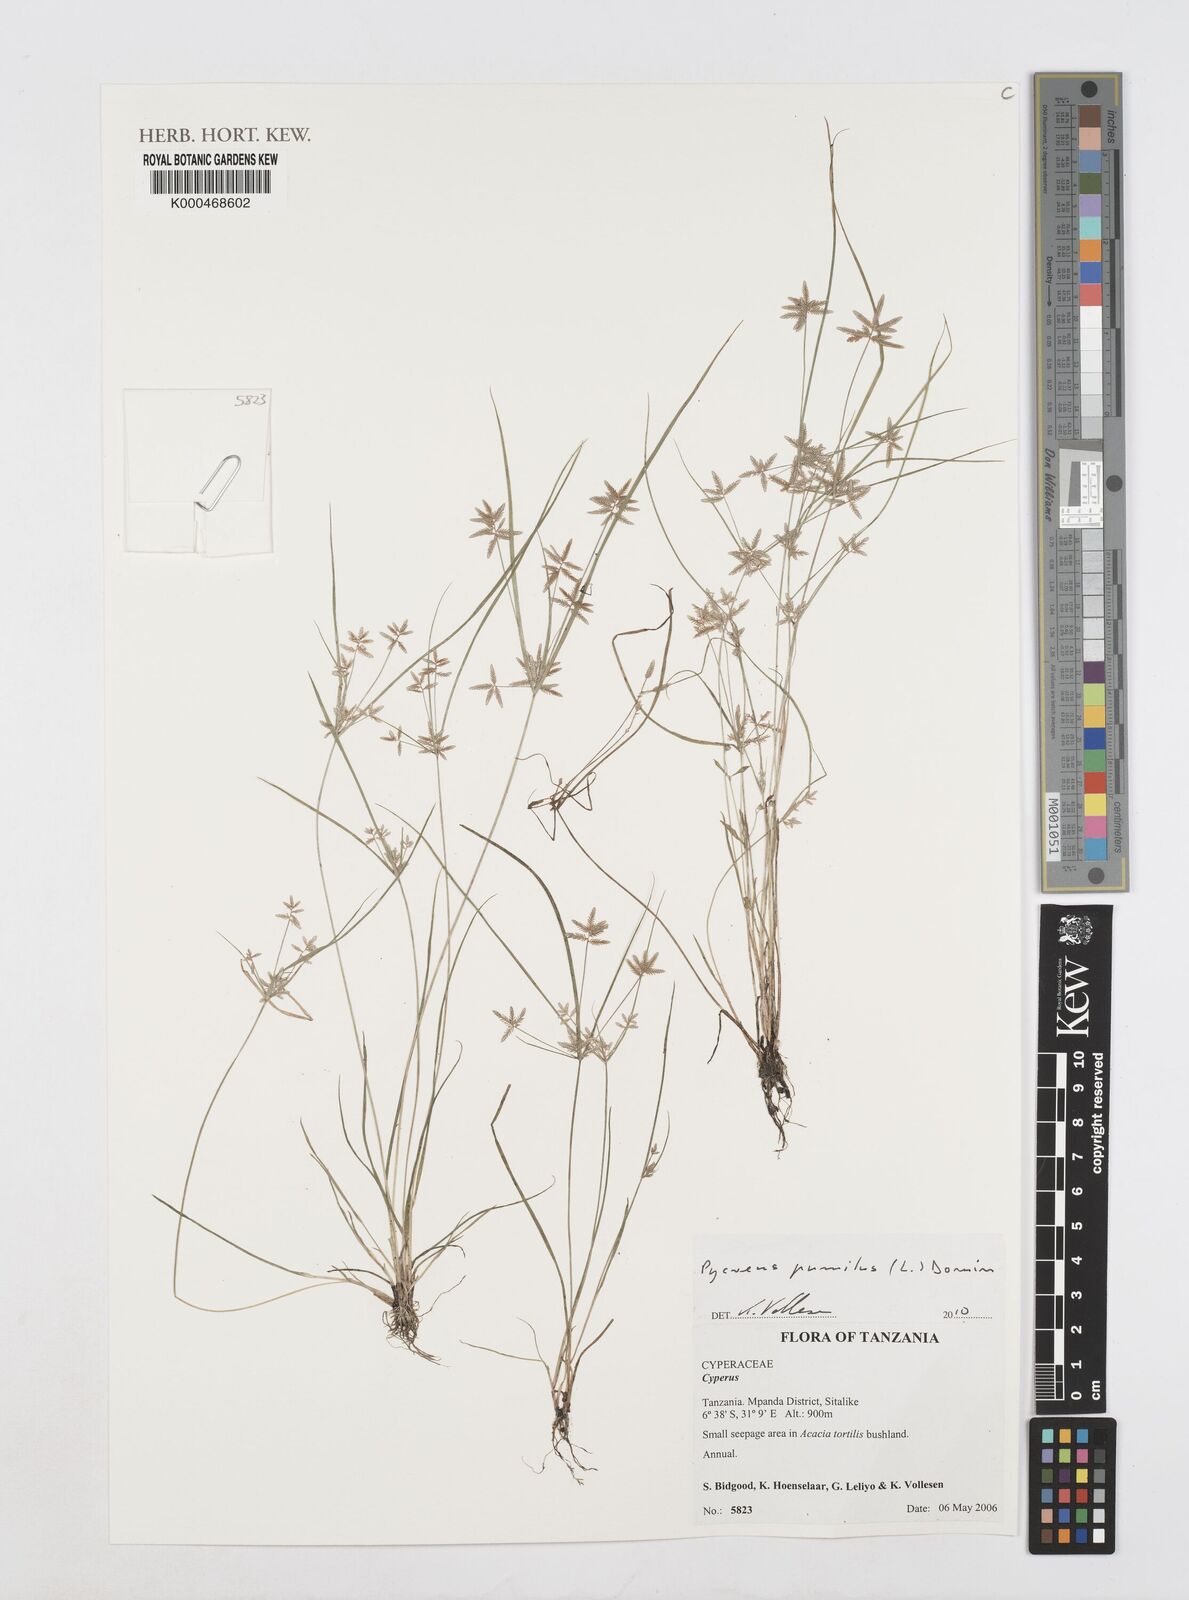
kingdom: Plantae
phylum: Tracheophyta
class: Liliopsida
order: Poales
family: Cyperaceae
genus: Cyperus
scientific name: Cyperus
